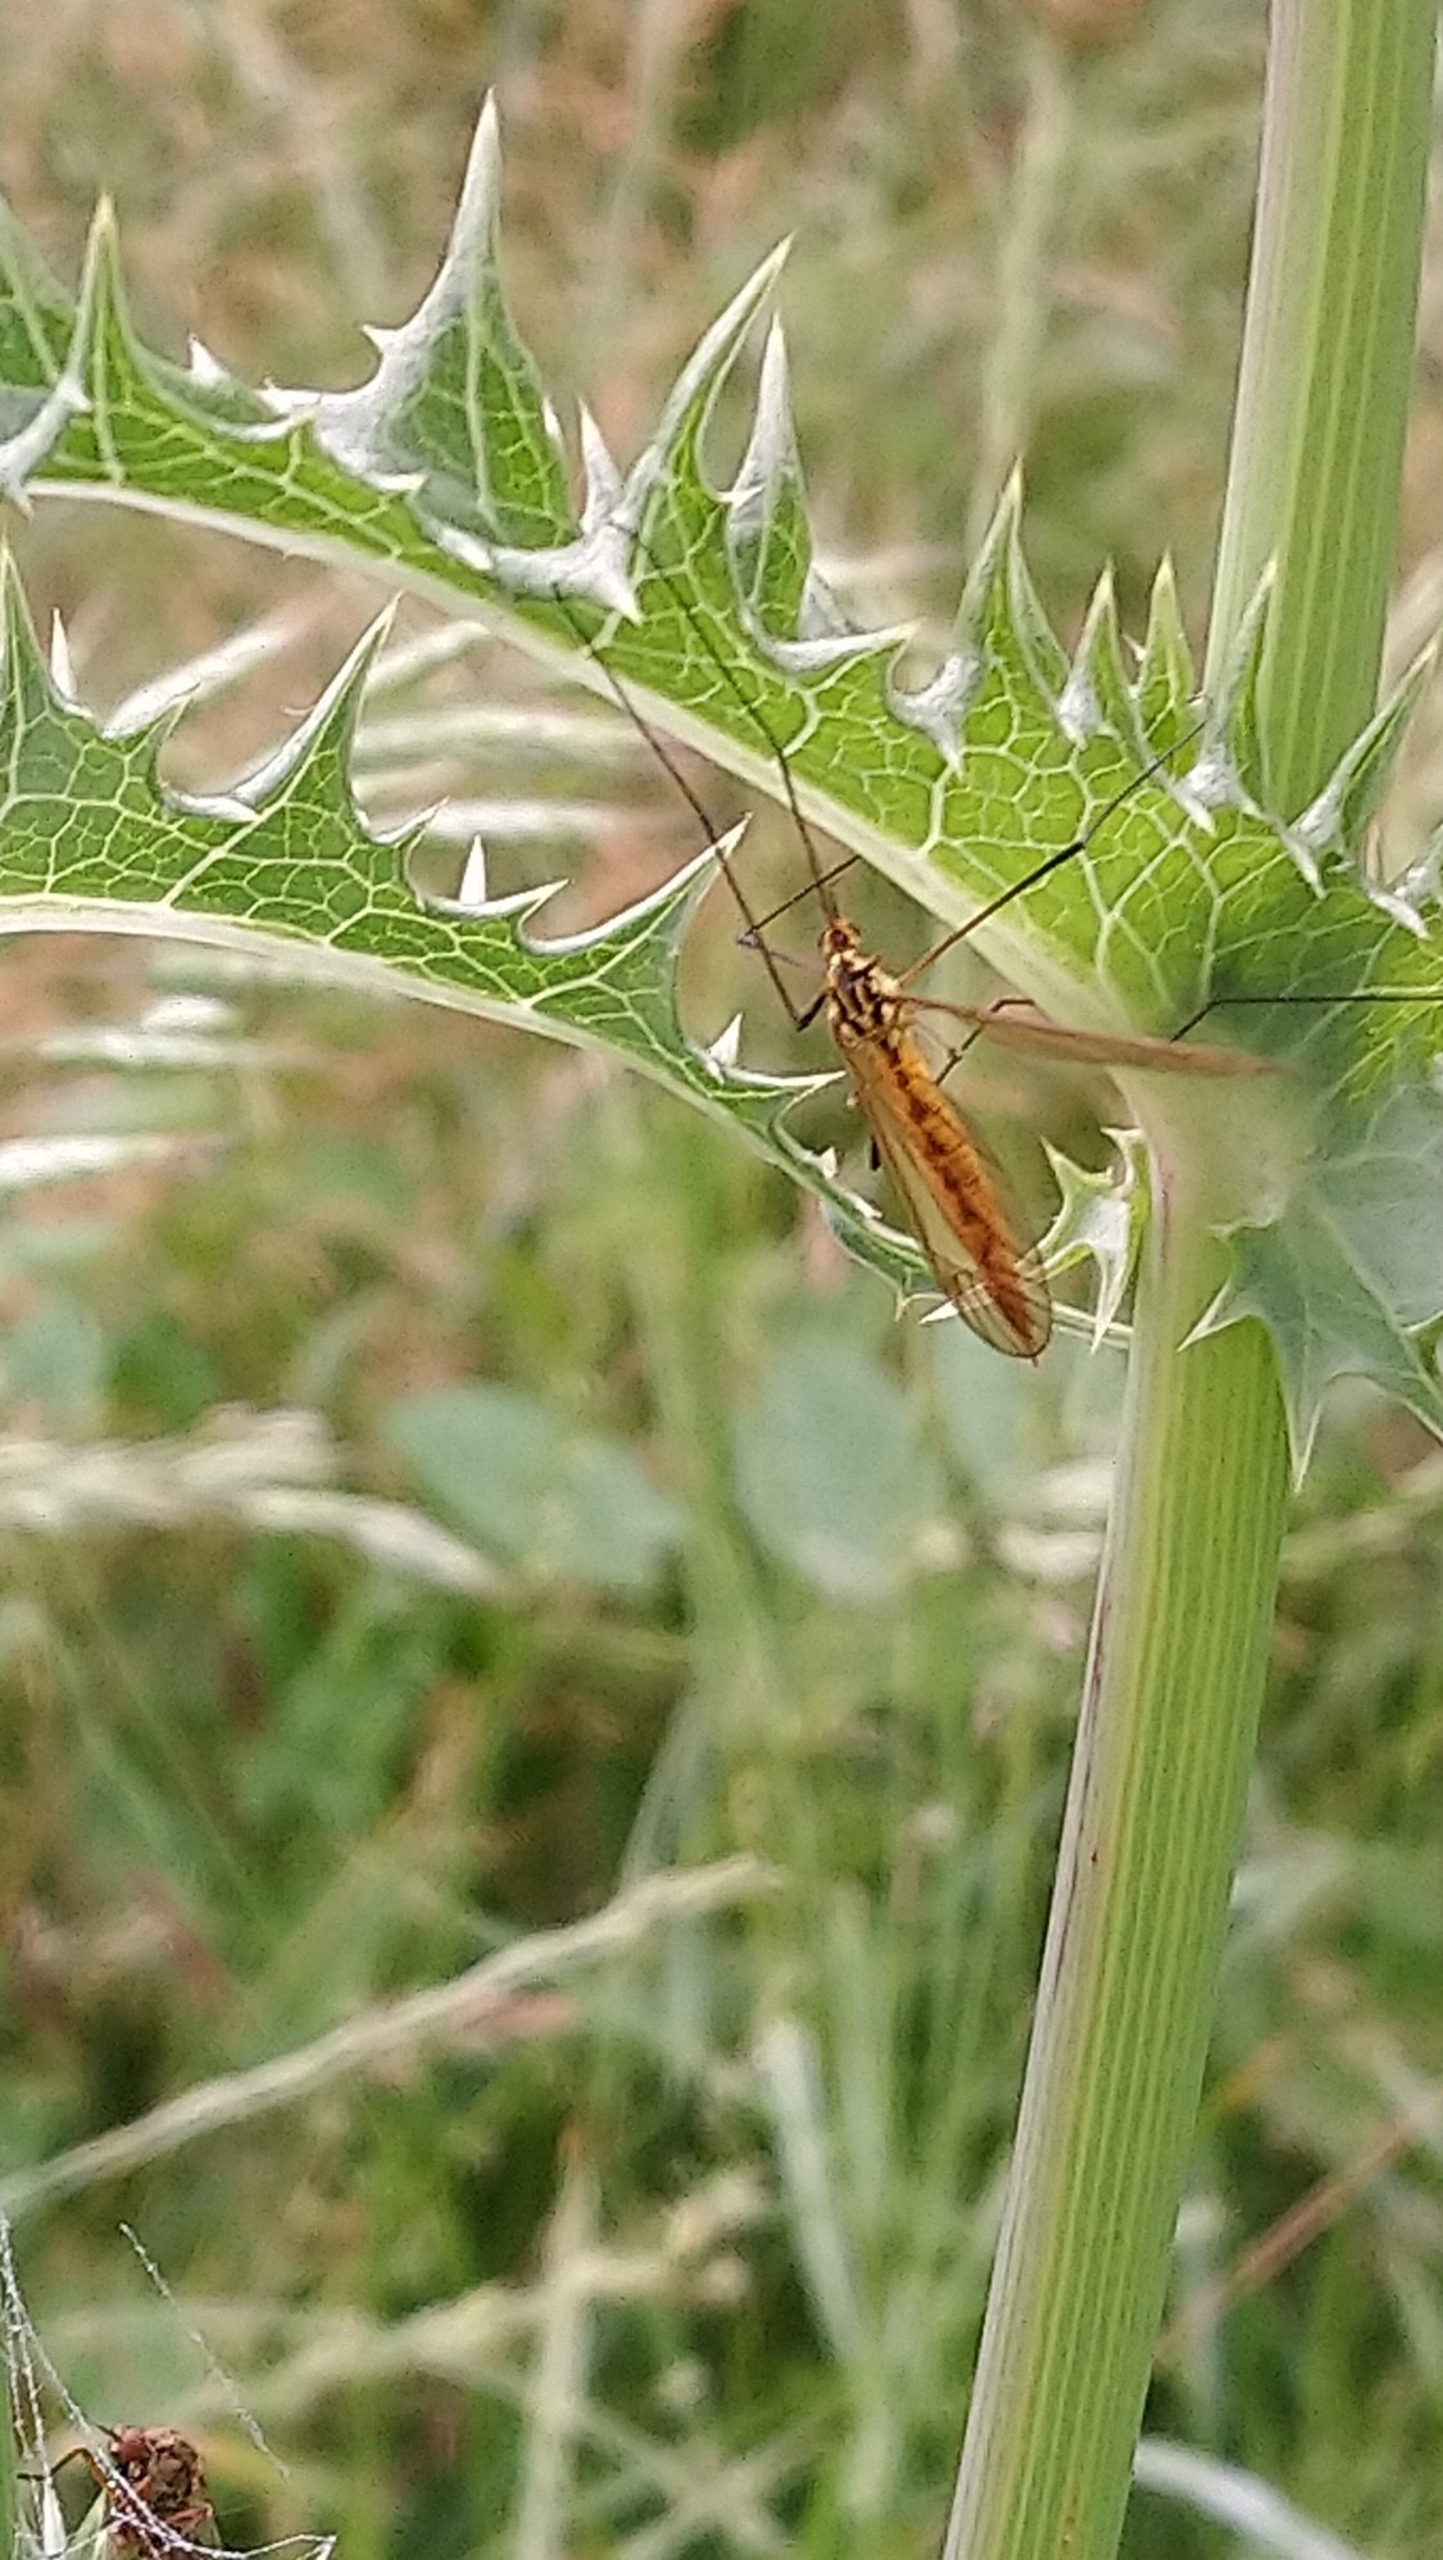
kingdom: Animalia
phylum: Arthropoda
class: Insecta
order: Diptera
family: Tipulidae
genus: Nephrotoma
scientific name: Nephrotoma
